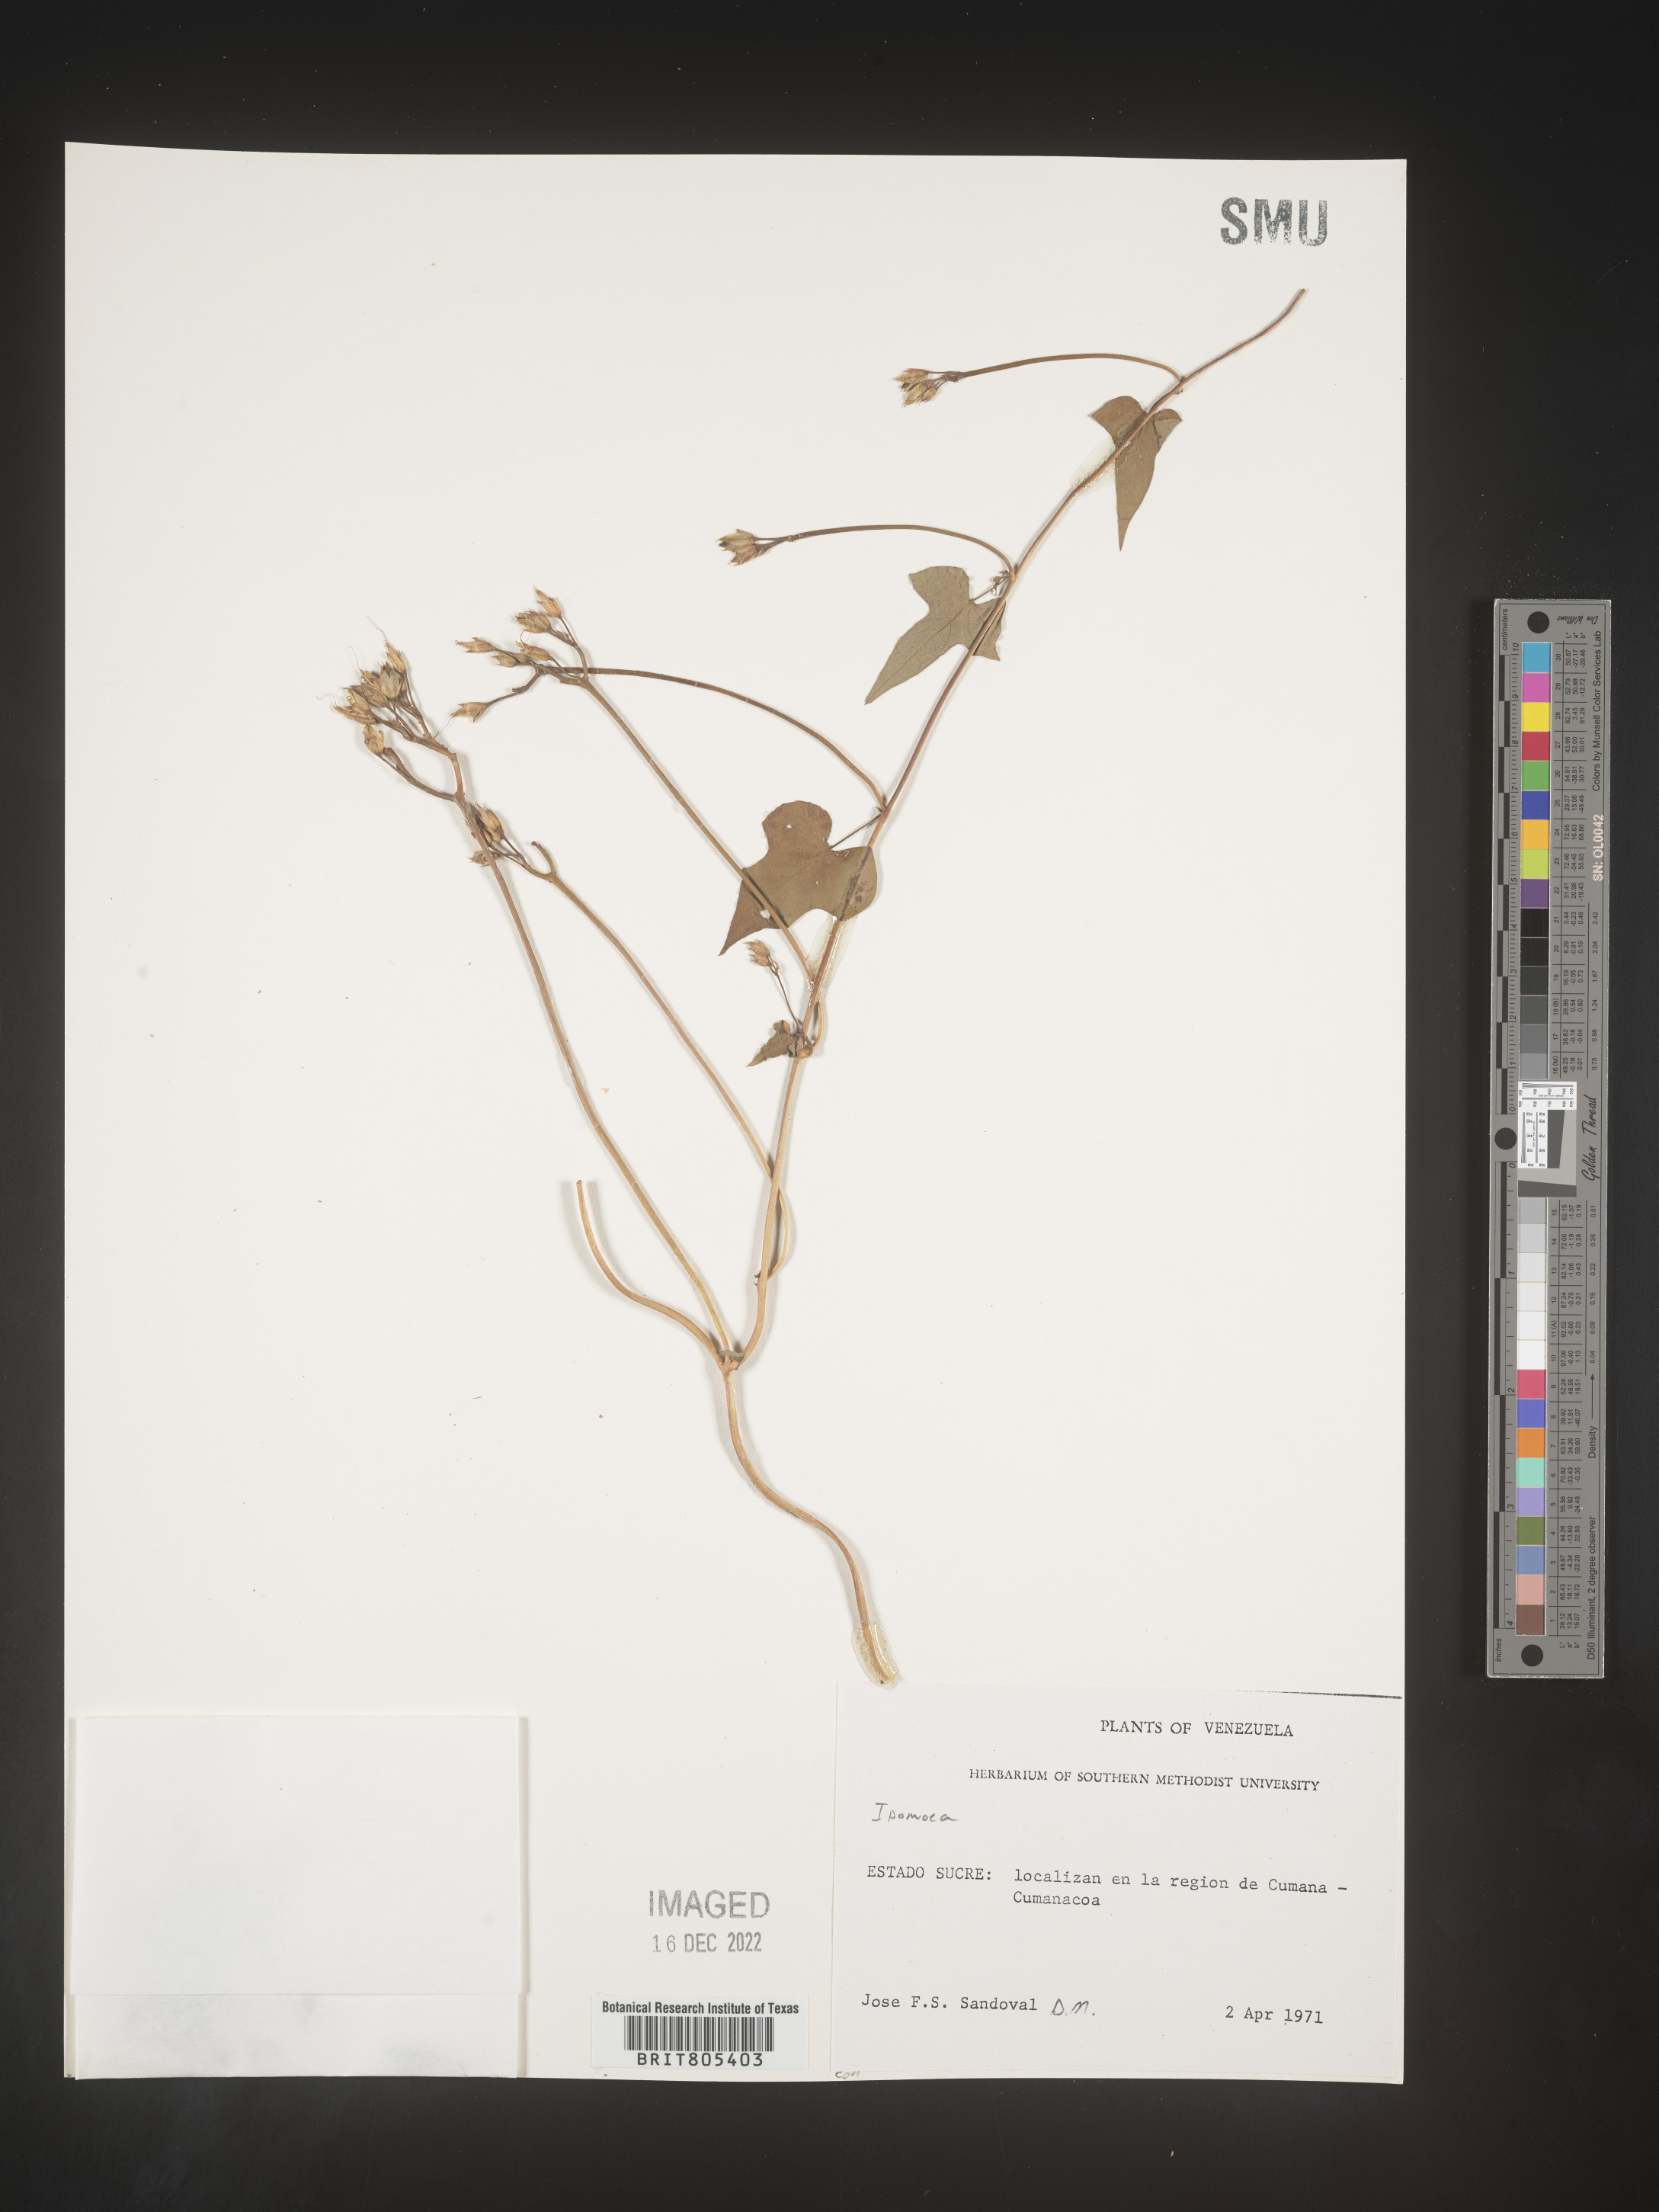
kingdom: Plantae
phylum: Tracheophyta
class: Magnoliopsida
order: Solanales
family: Convolvulaceae
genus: Ipomoea
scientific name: Ipomoea
